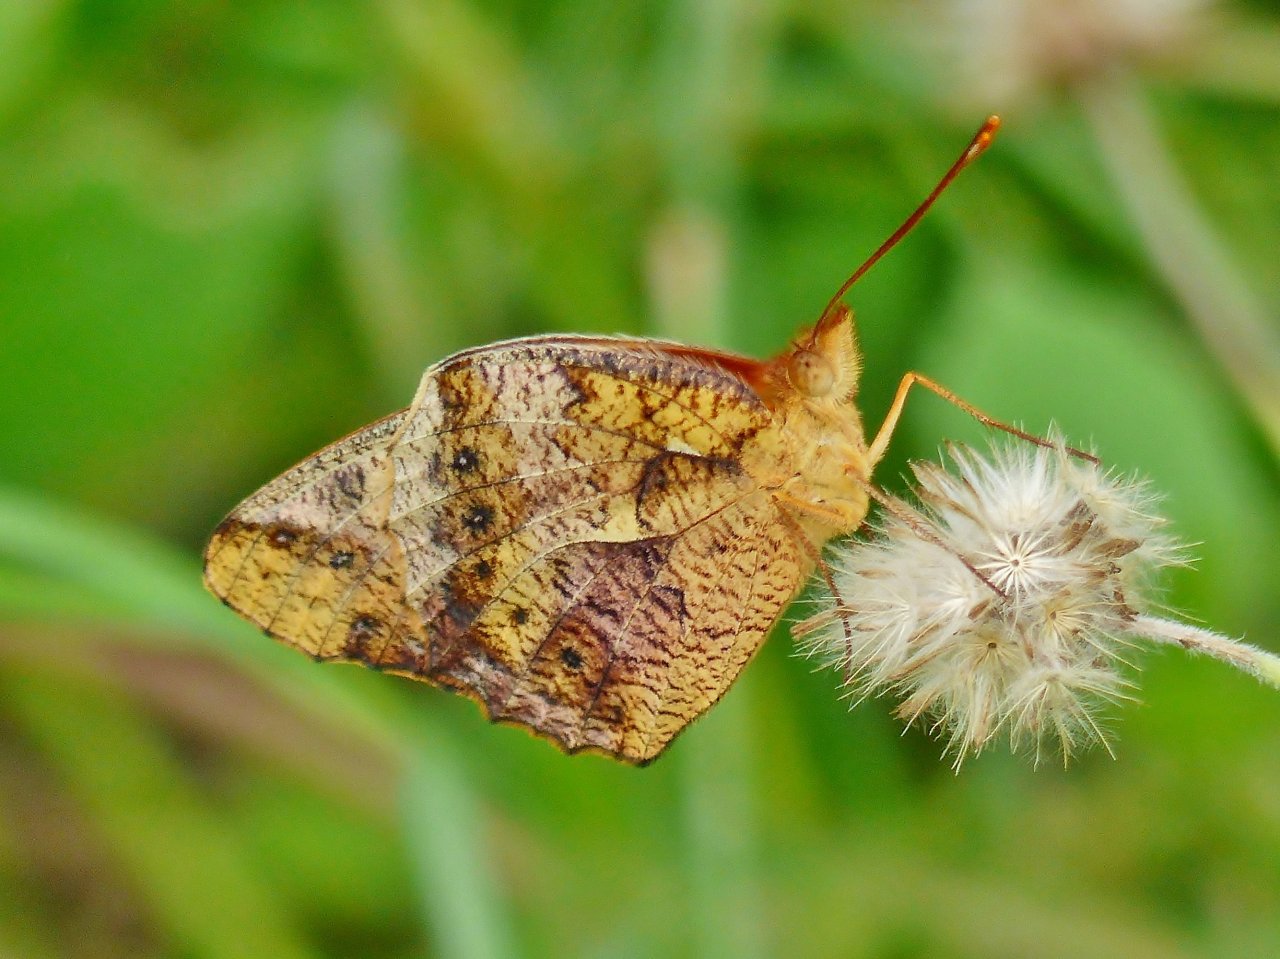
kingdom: Animalia
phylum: Arthropoda
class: Insecta
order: Lepidoptera
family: Nymphalidae
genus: Euptoieta
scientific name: Euptoieta hegesia
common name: Mexican Fritillary
